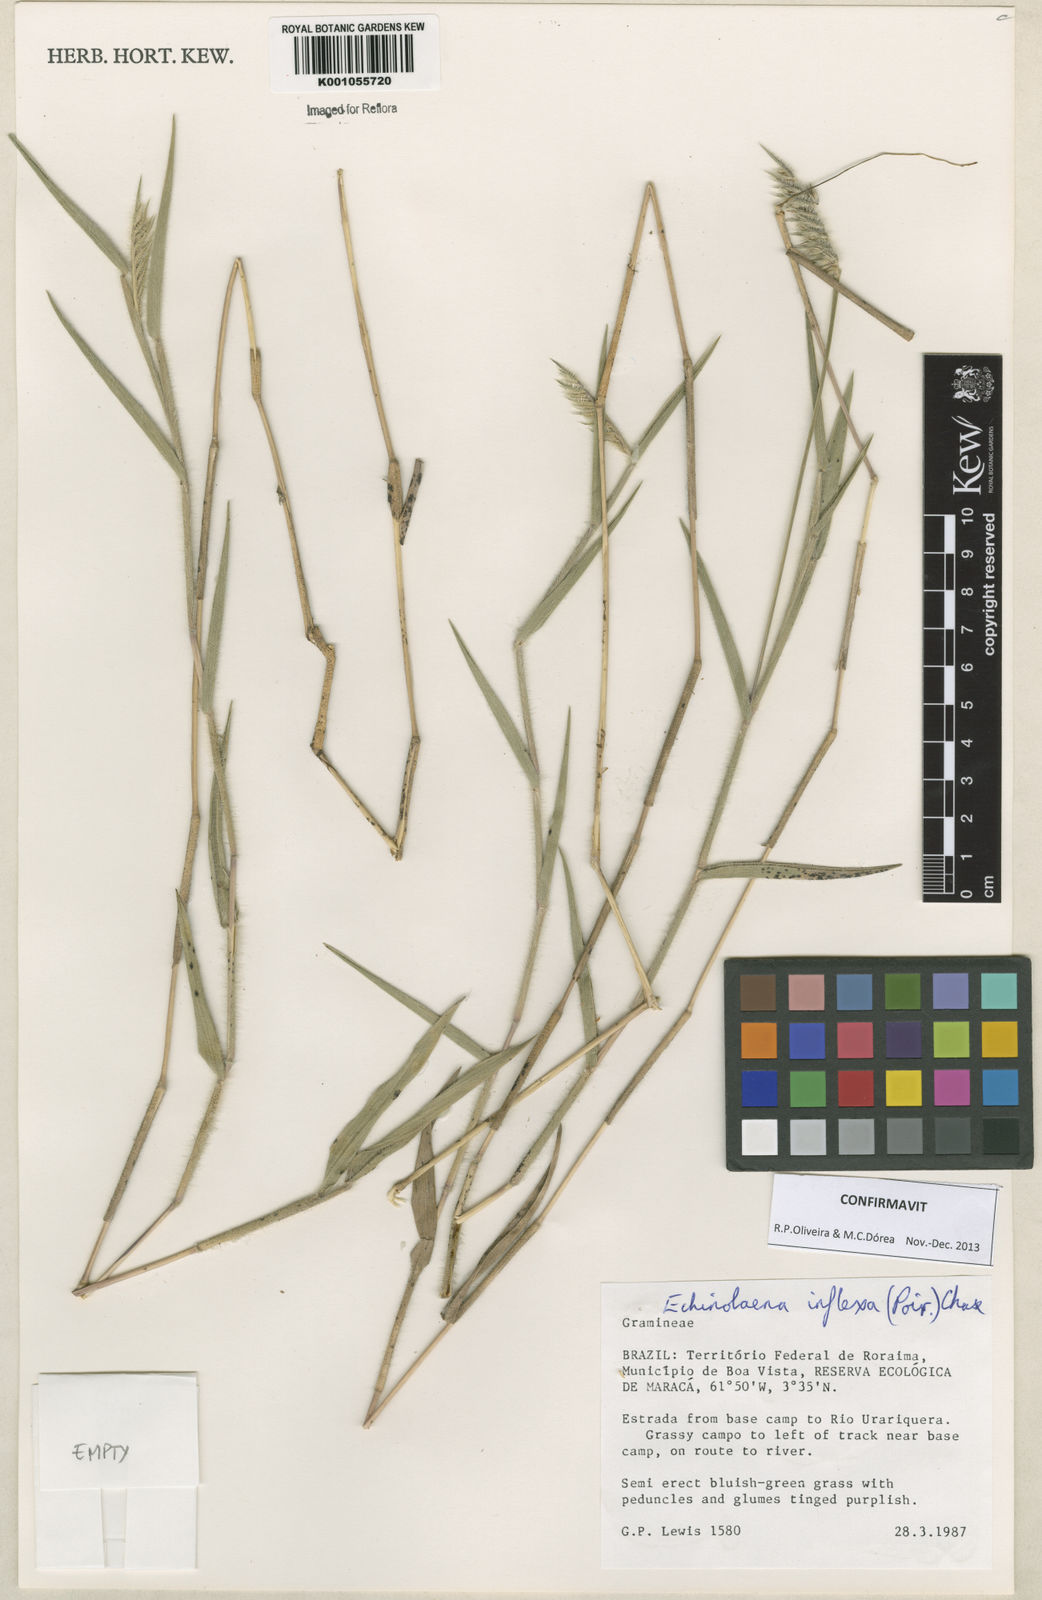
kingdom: Plantae
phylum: Tracheophyta
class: Liliopsida
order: Poales
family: Poaceae
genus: Echinolaena
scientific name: Echinolaena inflexa
